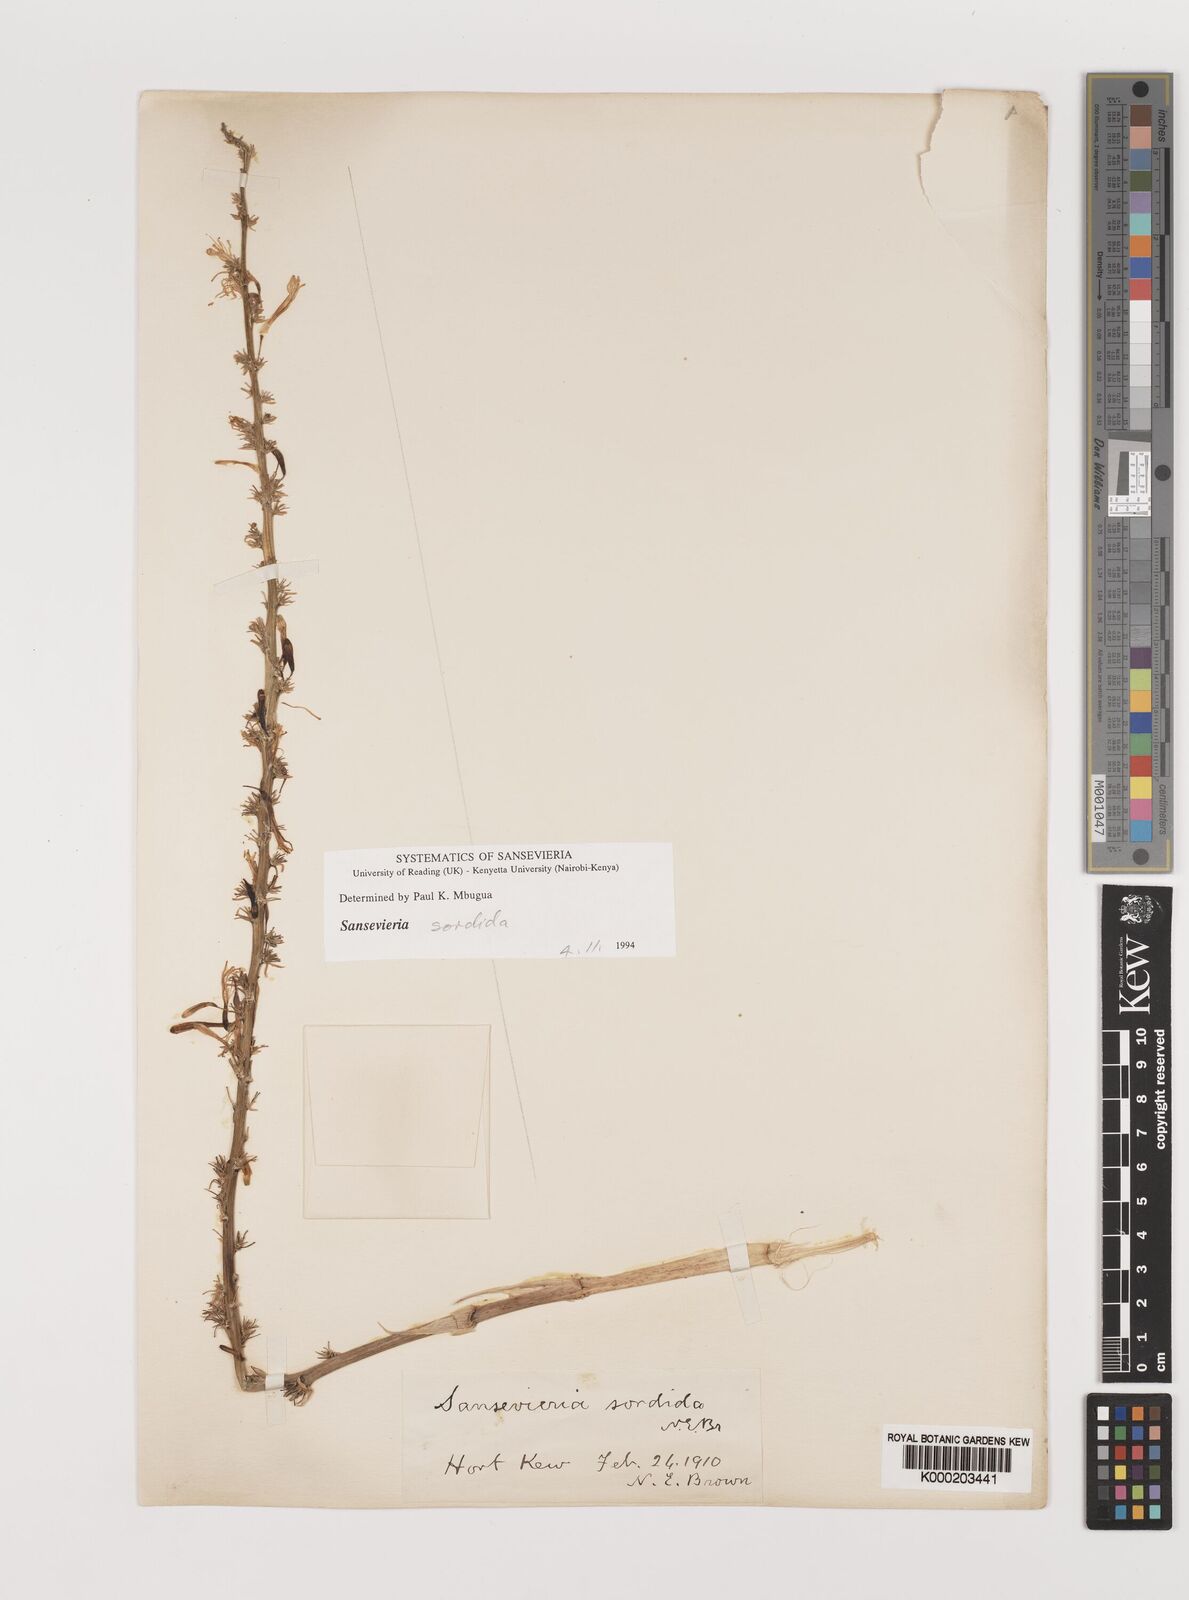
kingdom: Plantae
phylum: Tracheophyta
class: Liliopsida
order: Asparagales
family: Asparagaceae
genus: Dracaena
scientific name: Dracaena varians
